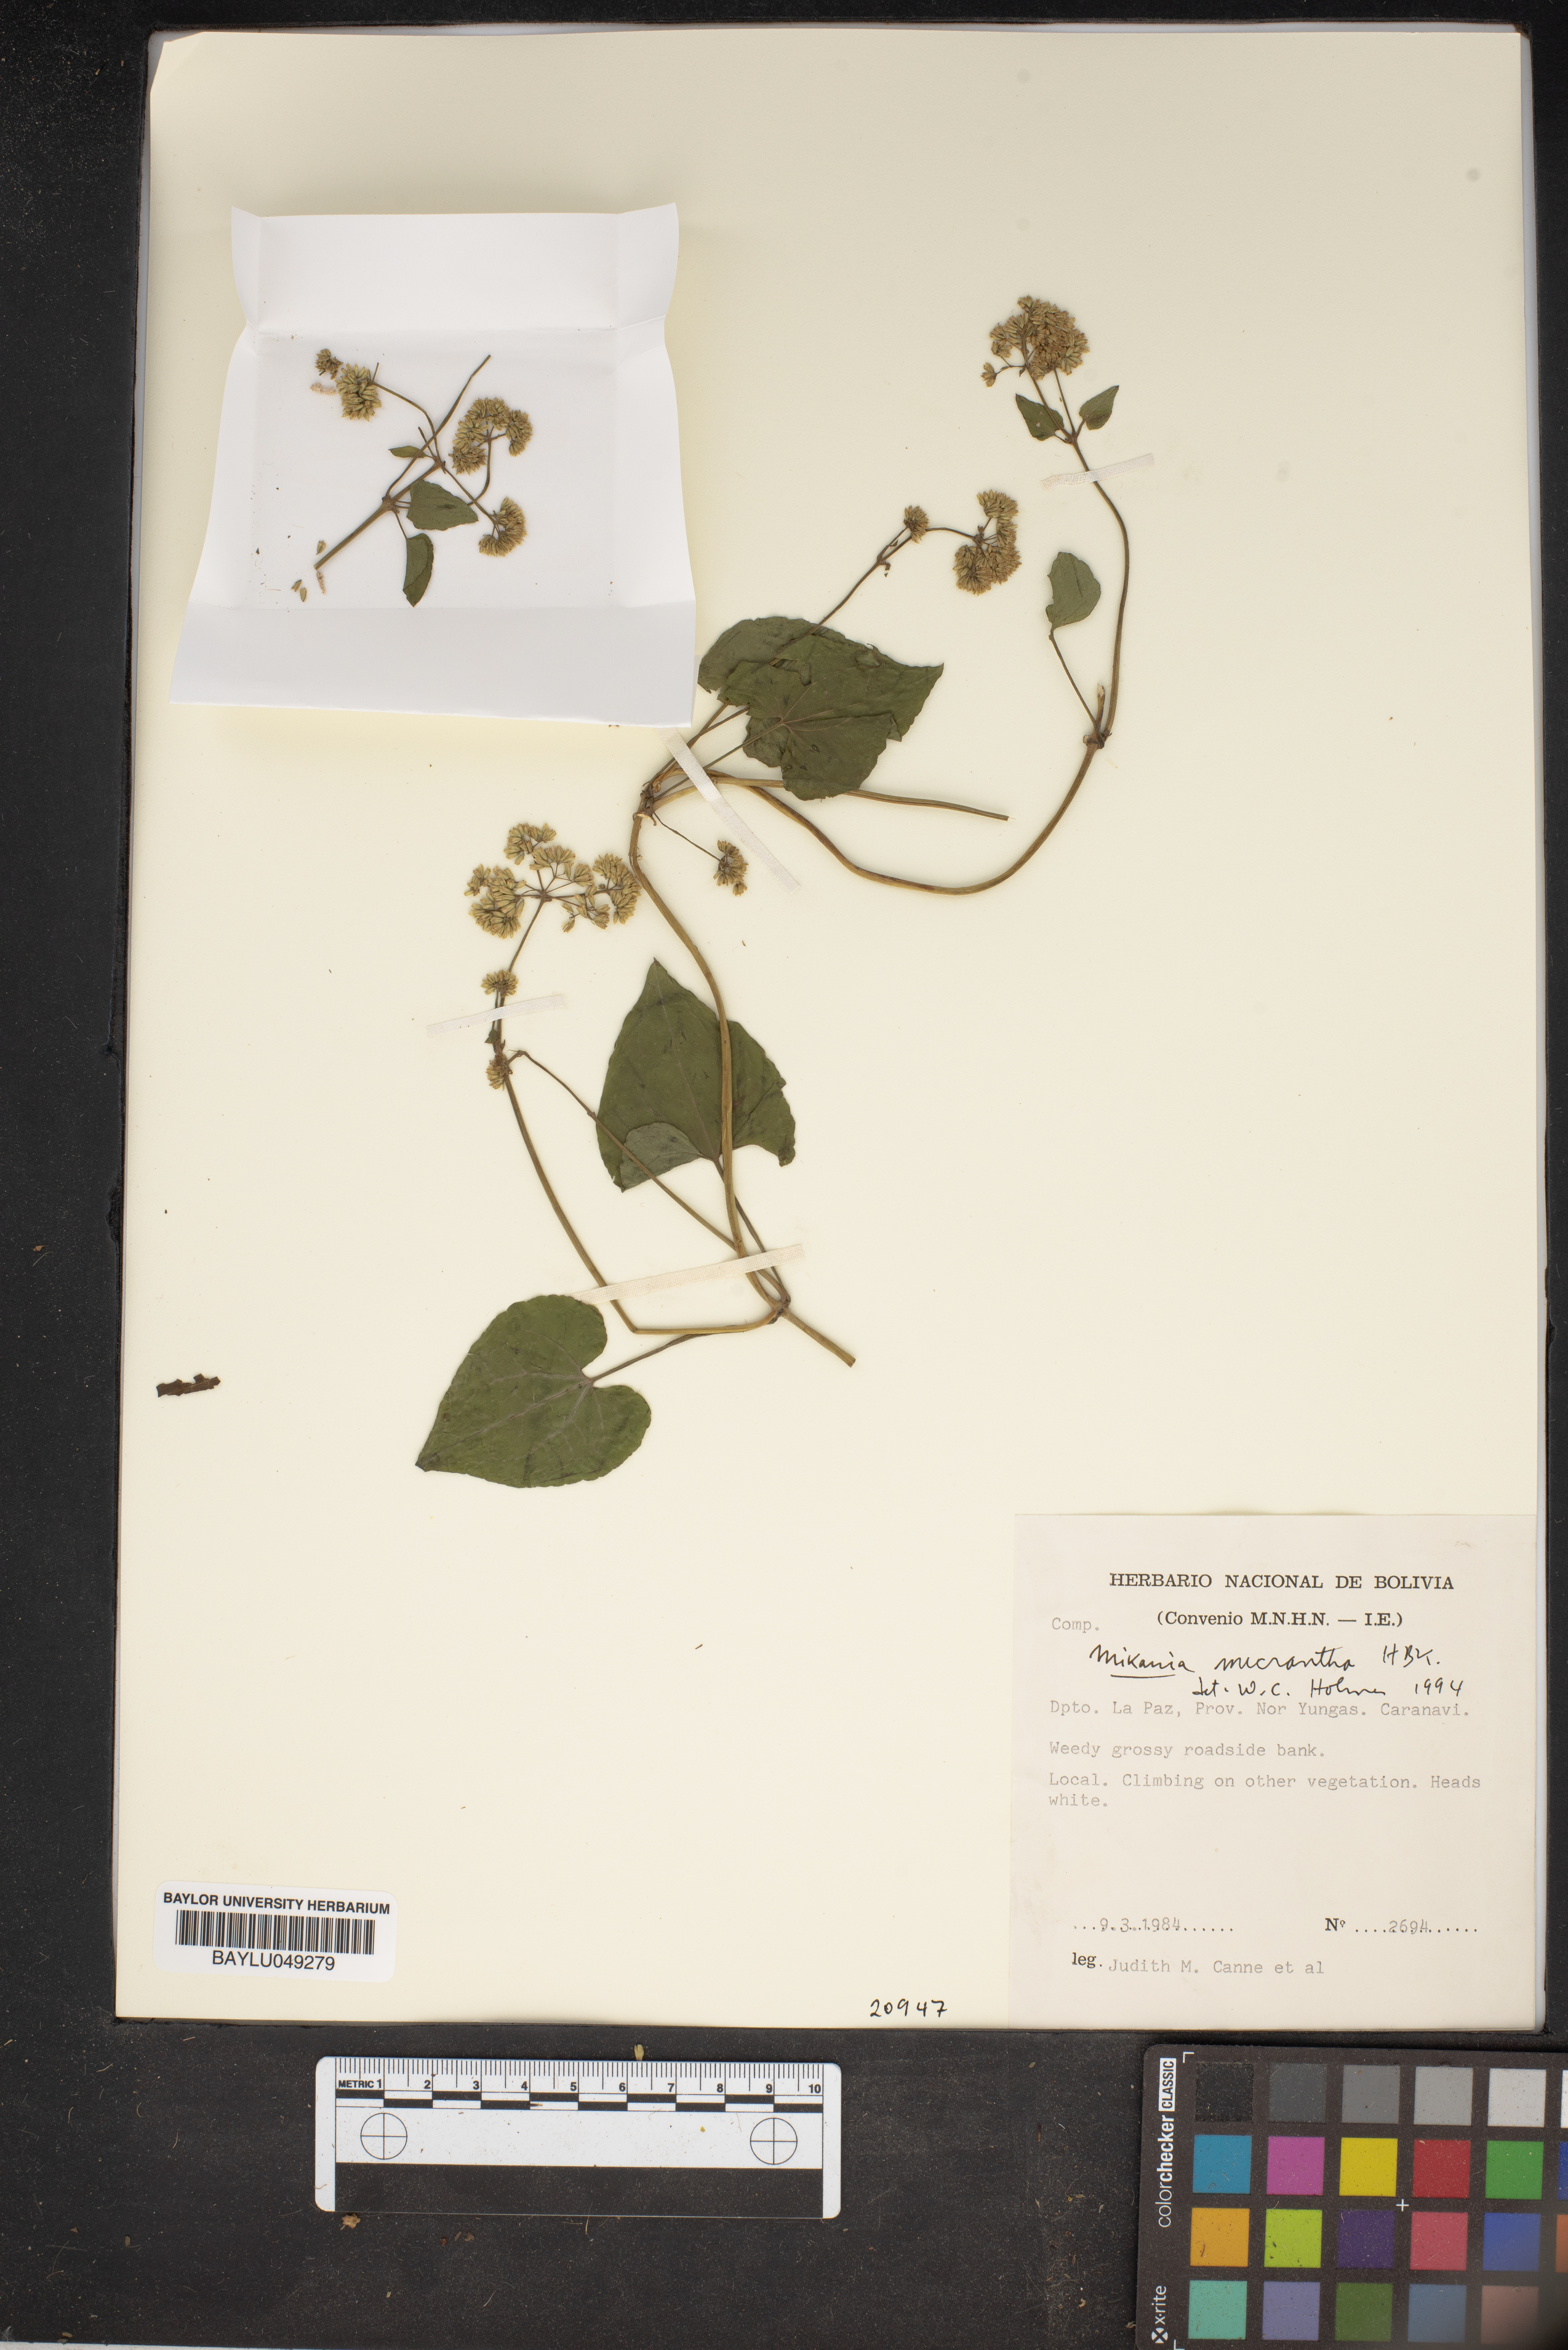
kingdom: Plantae
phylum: Tracheophyta
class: Magnoliopsida
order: Asterales
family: Asteraceae
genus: Mikania
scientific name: Mikania micrantha
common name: Mile-a-minute
